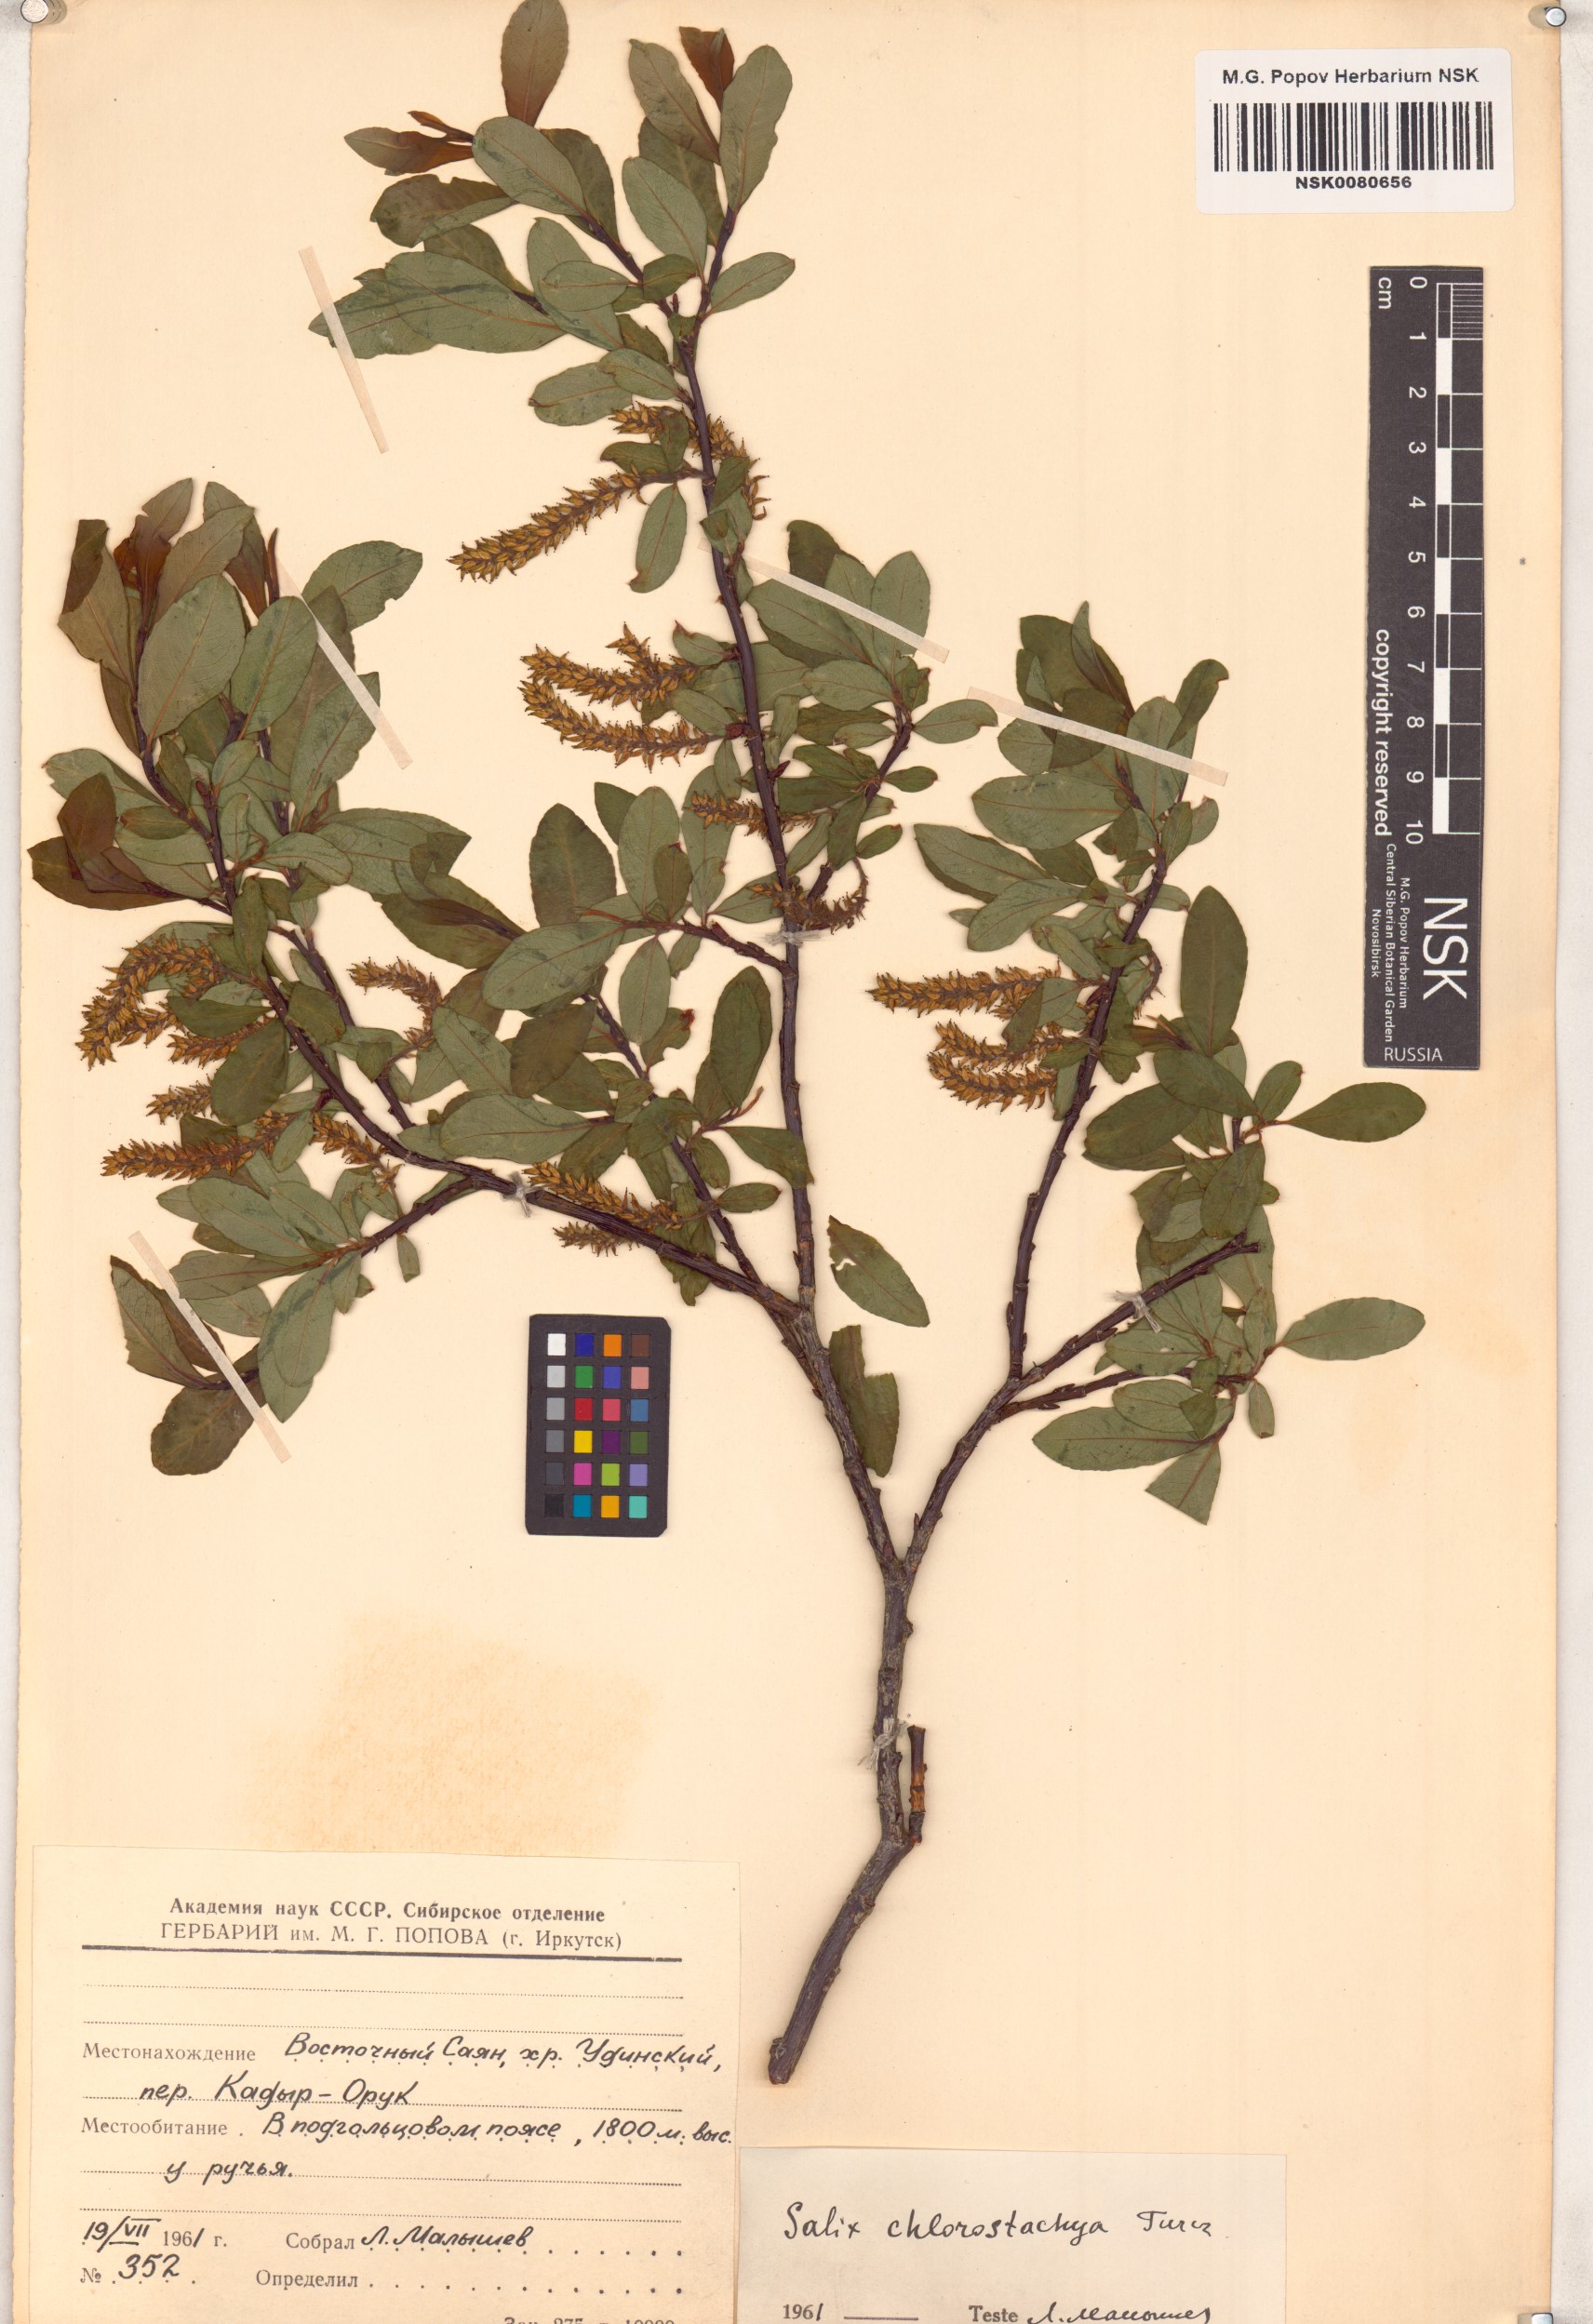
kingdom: Plantae
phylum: Tracheophyta
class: Magnoliopsida
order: Malpighiales
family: Salicaceae
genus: Salix
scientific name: Salix rhamnifolia
